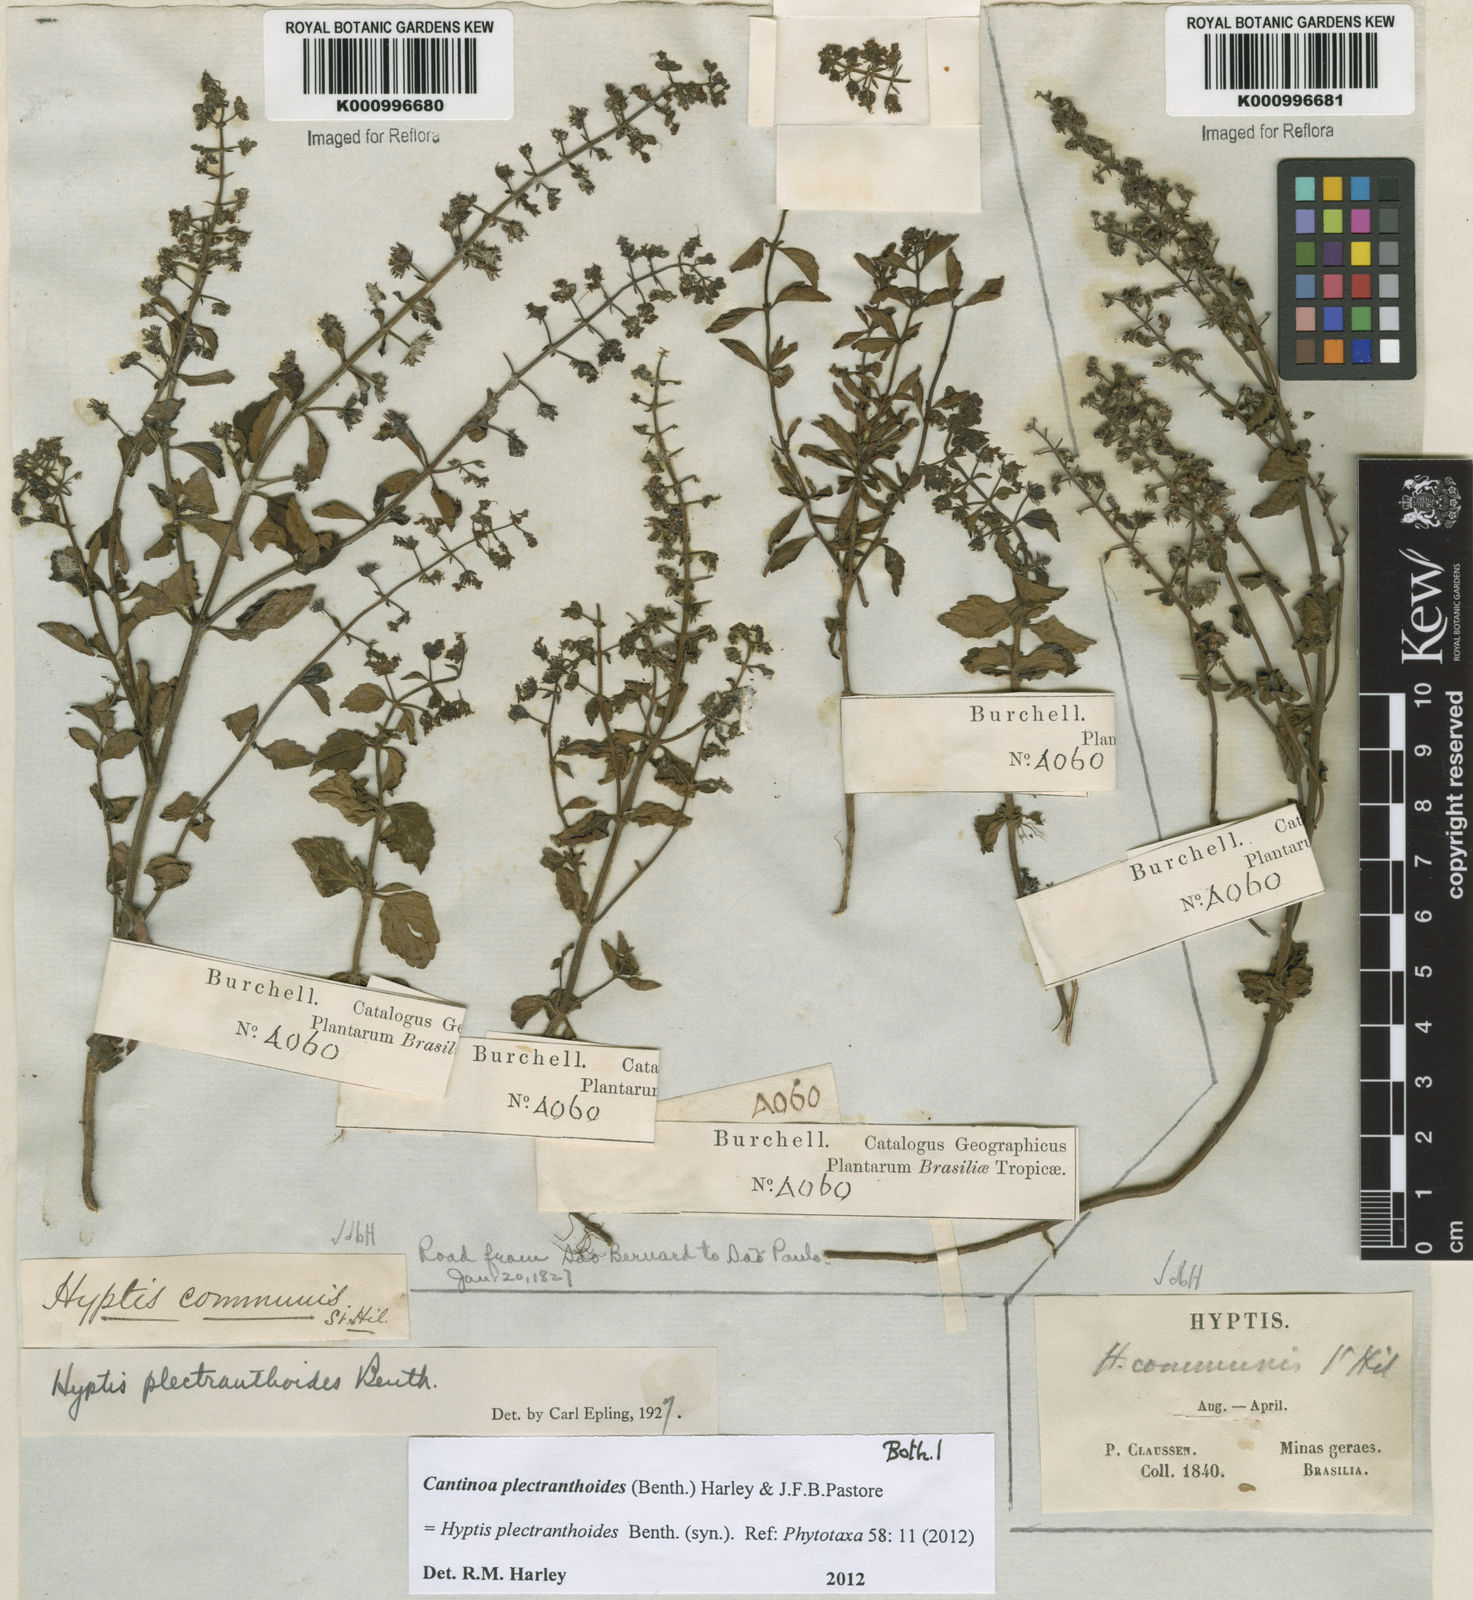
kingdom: Plantae
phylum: Tracheophyta
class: Magnoliopsida
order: Lamiales
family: Lamiaceae
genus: Cantinoa
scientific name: Cantinoa plectranthoides
